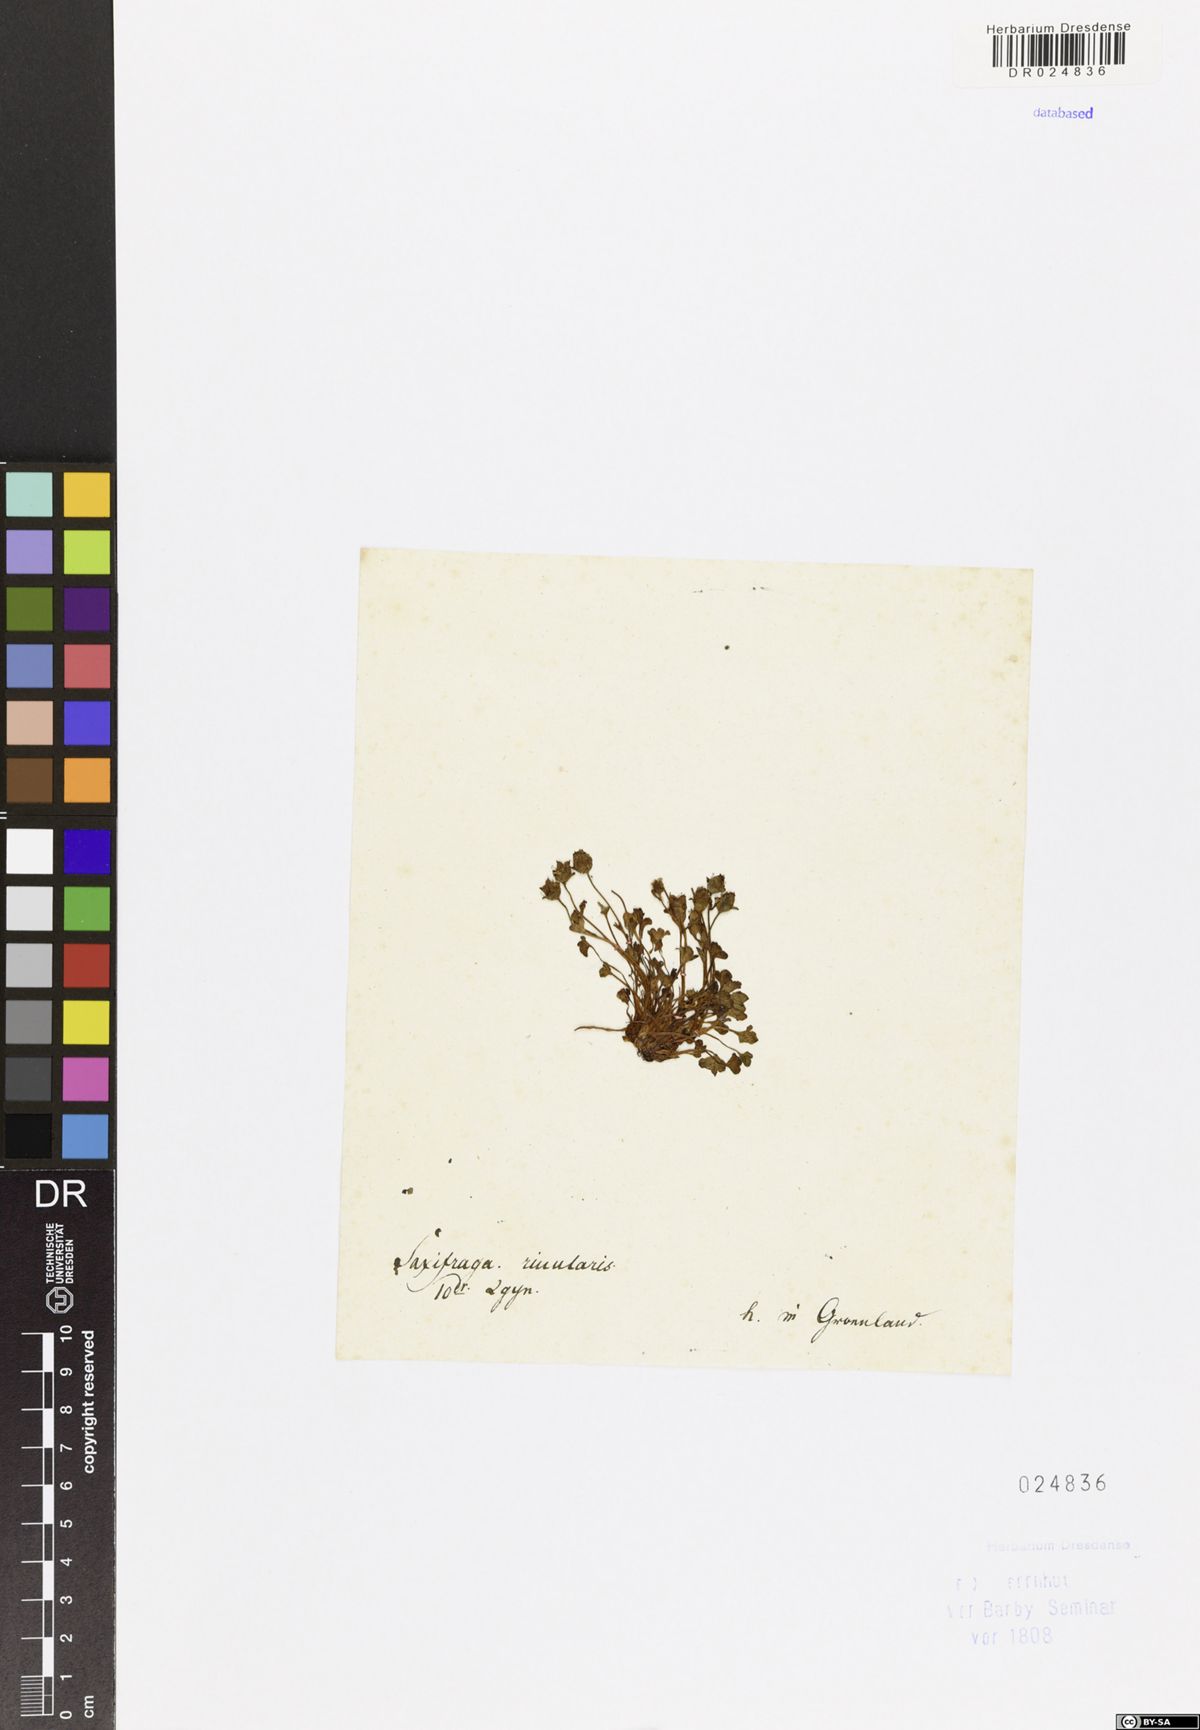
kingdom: Plantae
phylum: Tracheophyta
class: Magnoliopsida
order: Saxifragales
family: Saxifragaceae
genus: Saxifraga
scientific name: Saxifraga rivularis
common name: Highland saxifrage
